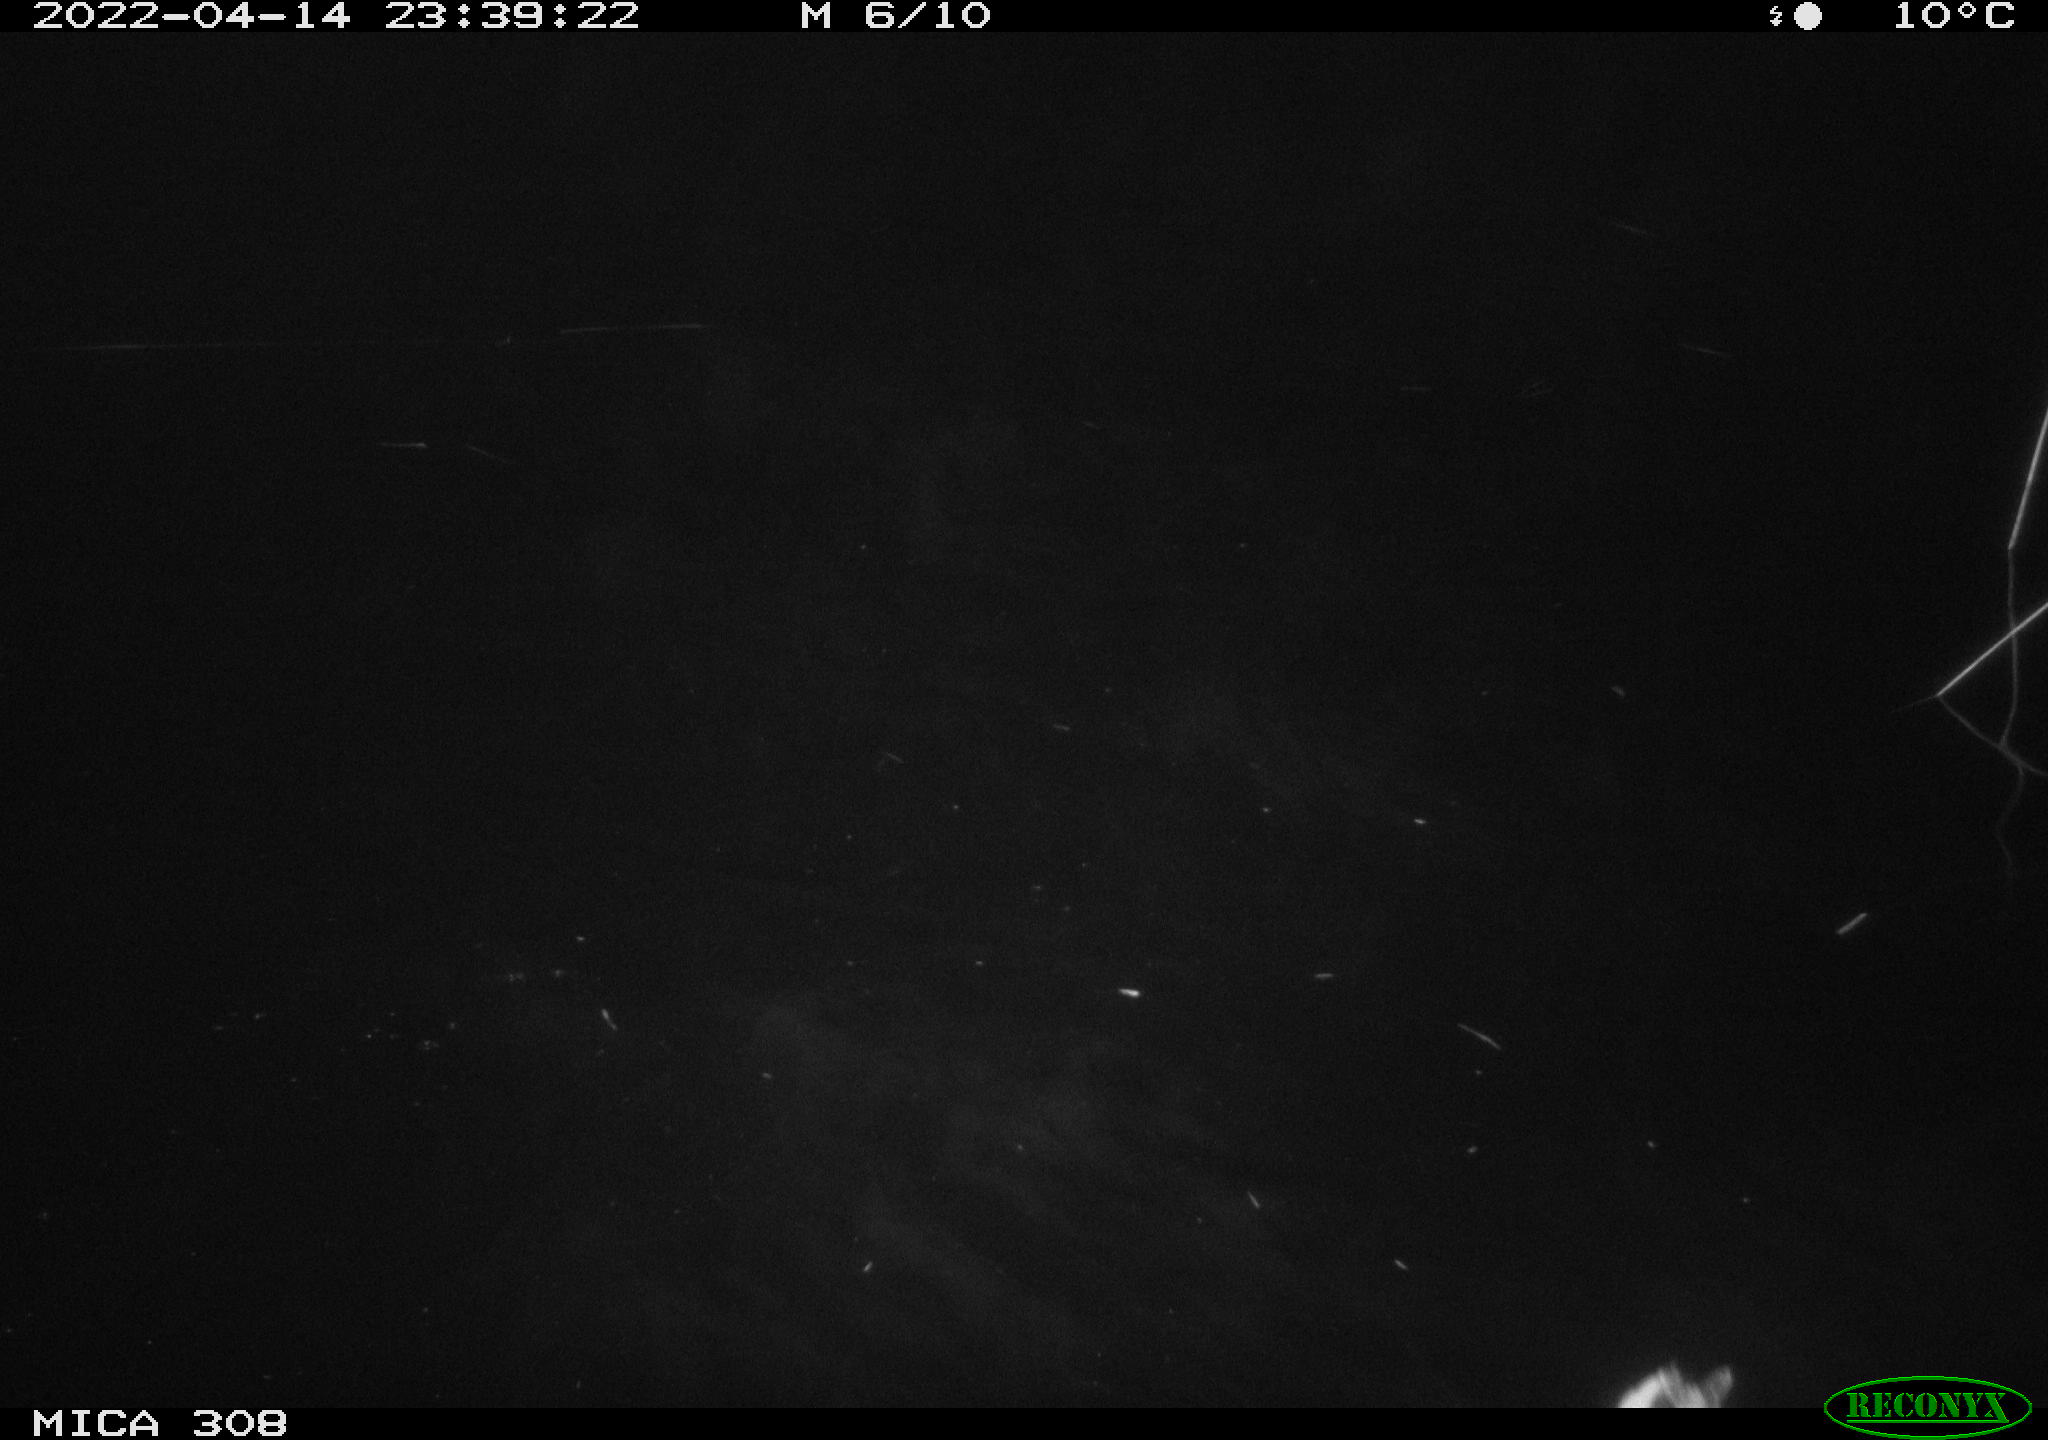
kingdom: Animalia
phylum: Chordata
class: Aves
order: Gruiformes
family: Rallidae
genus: Gallinula
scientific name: Gallinula chloropus
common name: Common moorhen
